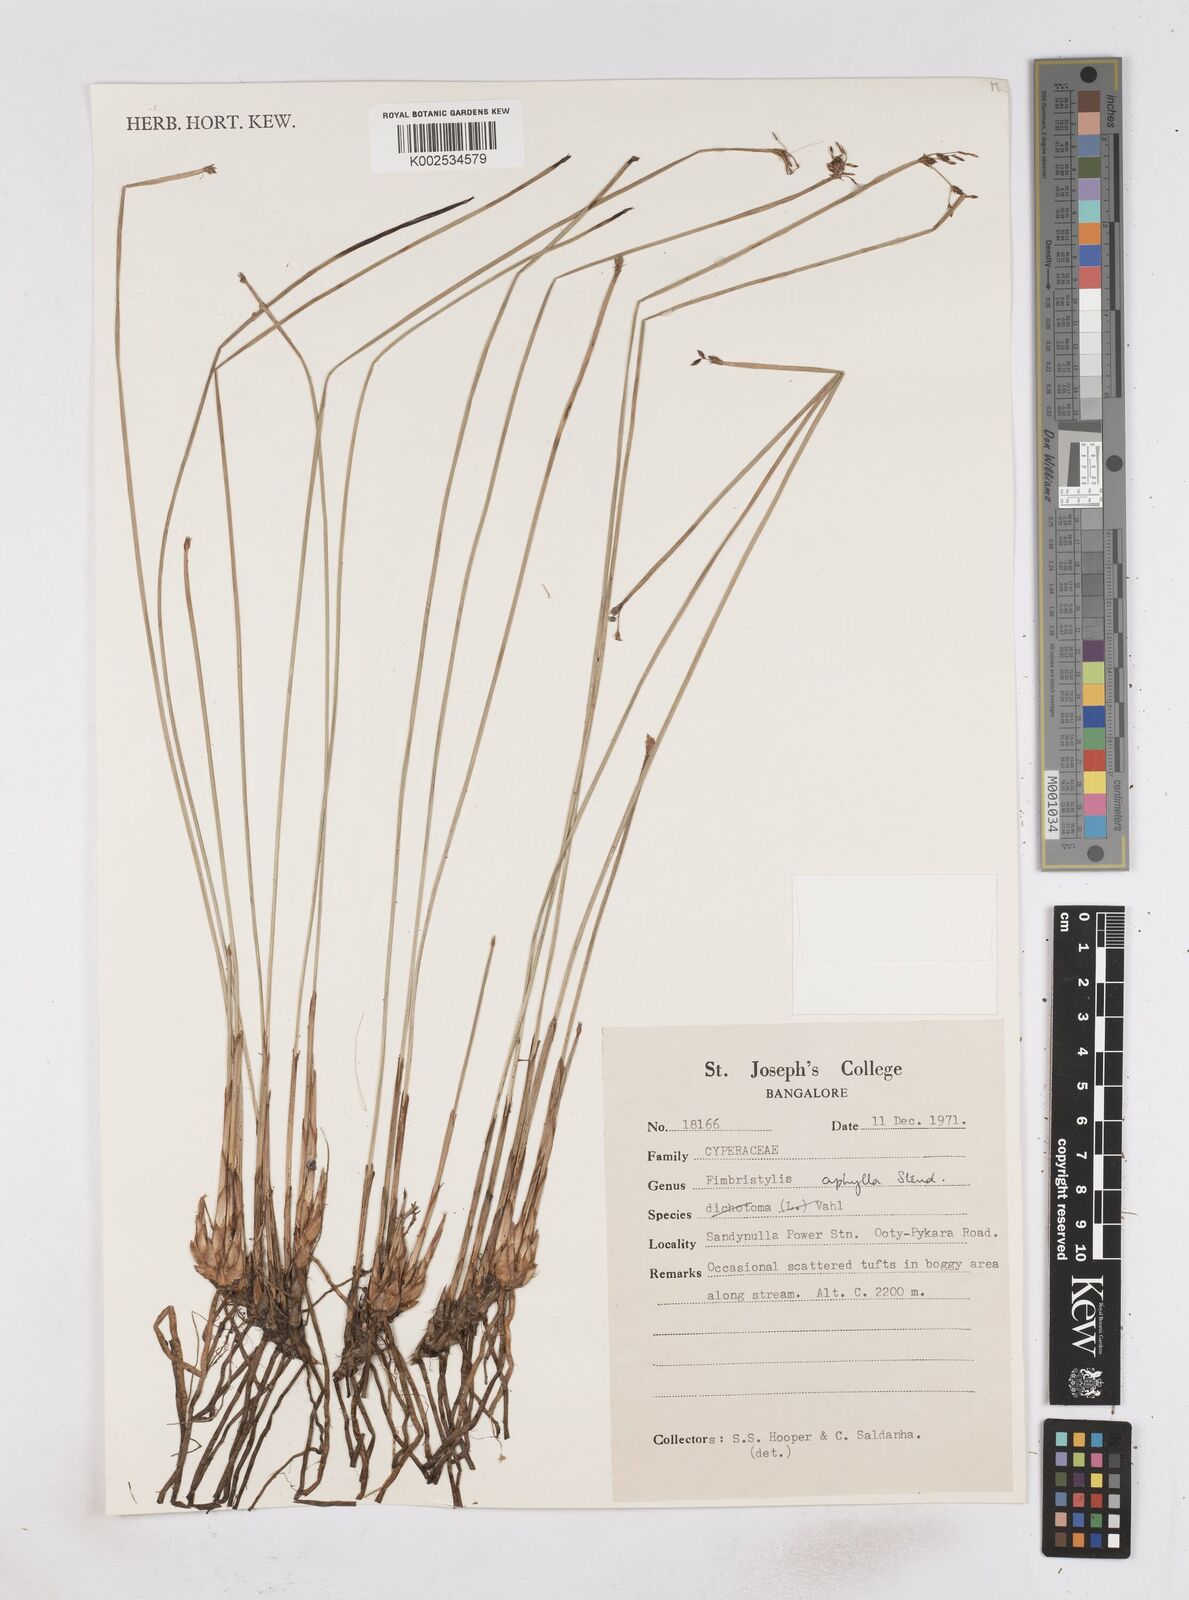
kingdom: Plantae
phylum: Tracheophyta
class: Liliopsida
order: Poales
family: Cyperaceae
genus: Fimbristylis
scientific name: Fimbristylis aphylla
